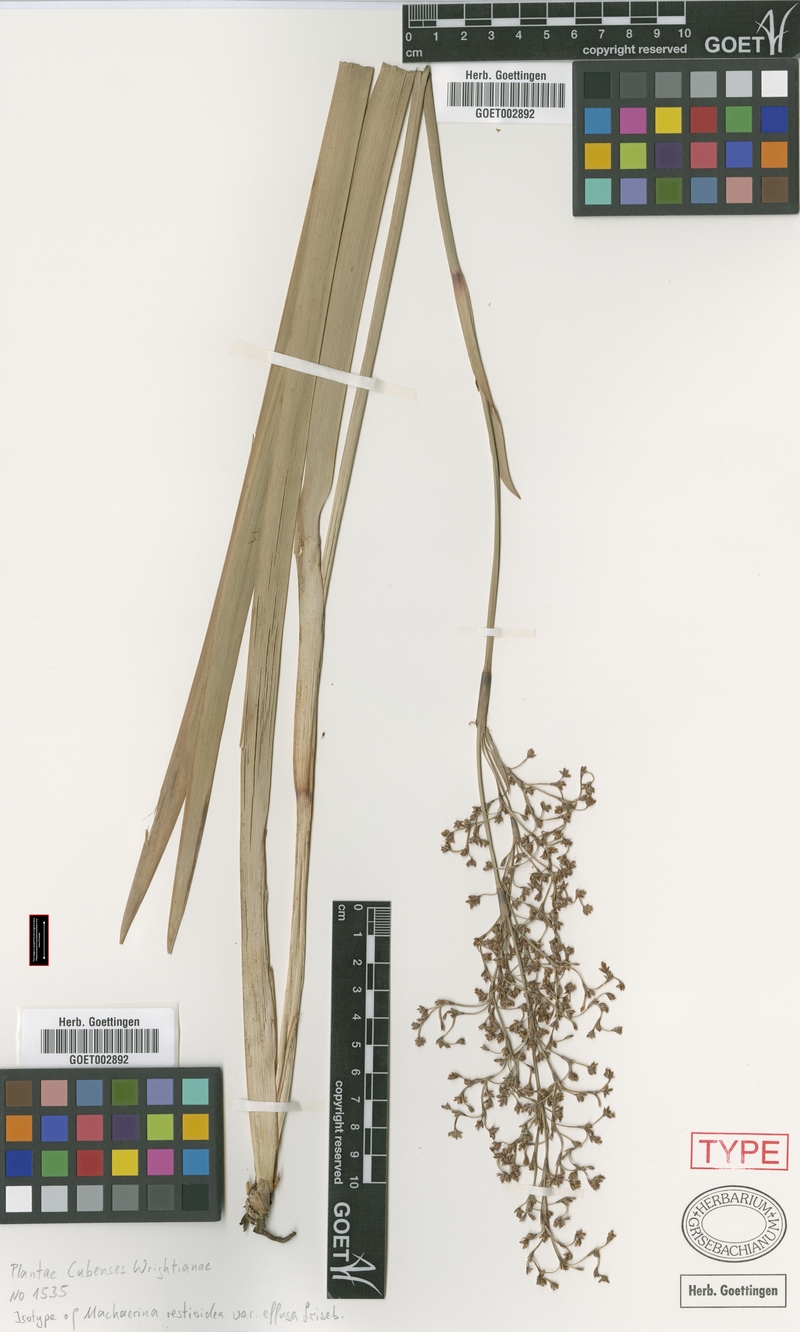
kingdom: Plantae
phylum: Tracheophyta
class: Liliopsida
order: Poales
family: Cyperaceae
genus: Machaerina
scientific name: Machaerina restioides
